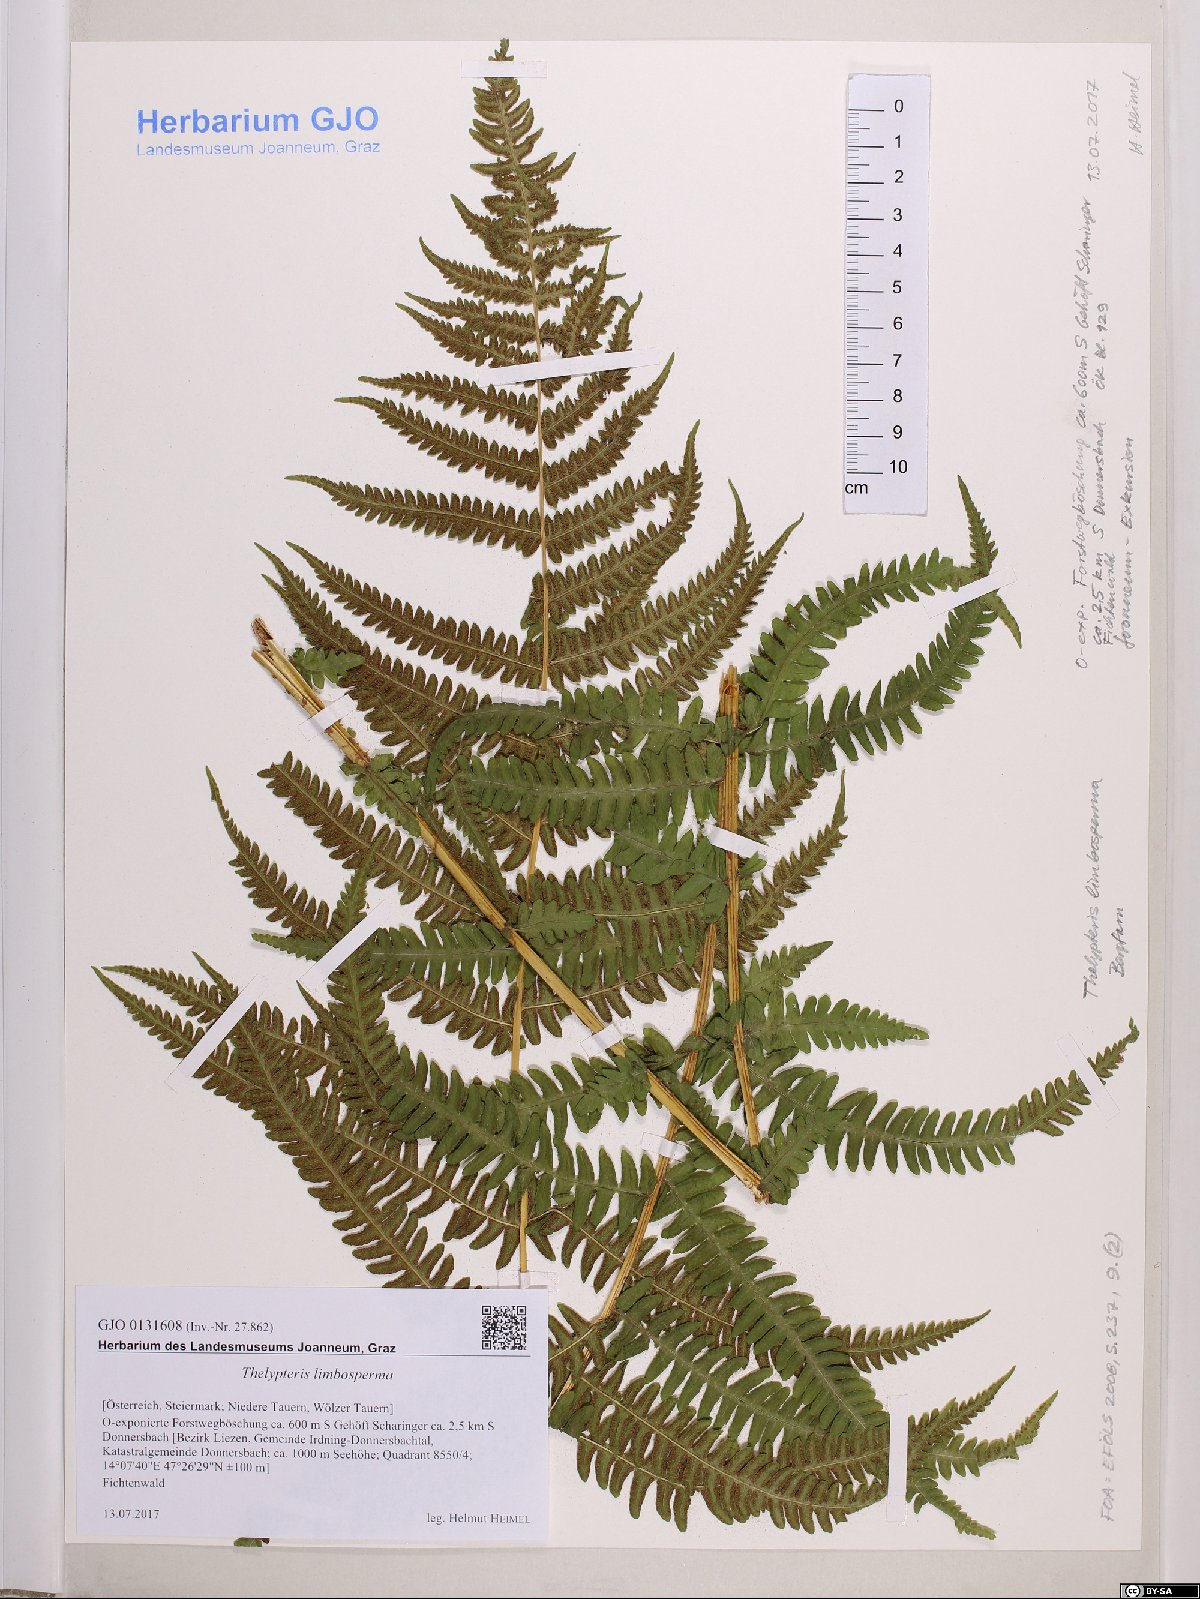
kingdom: Plantae
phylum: Tracheophyta
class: Polypodiopsida
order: Polypodiales
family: Thelypteridaceae
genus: Oreopteris
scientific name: Oreopteris limbosperma
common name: Lemon-scented fern
